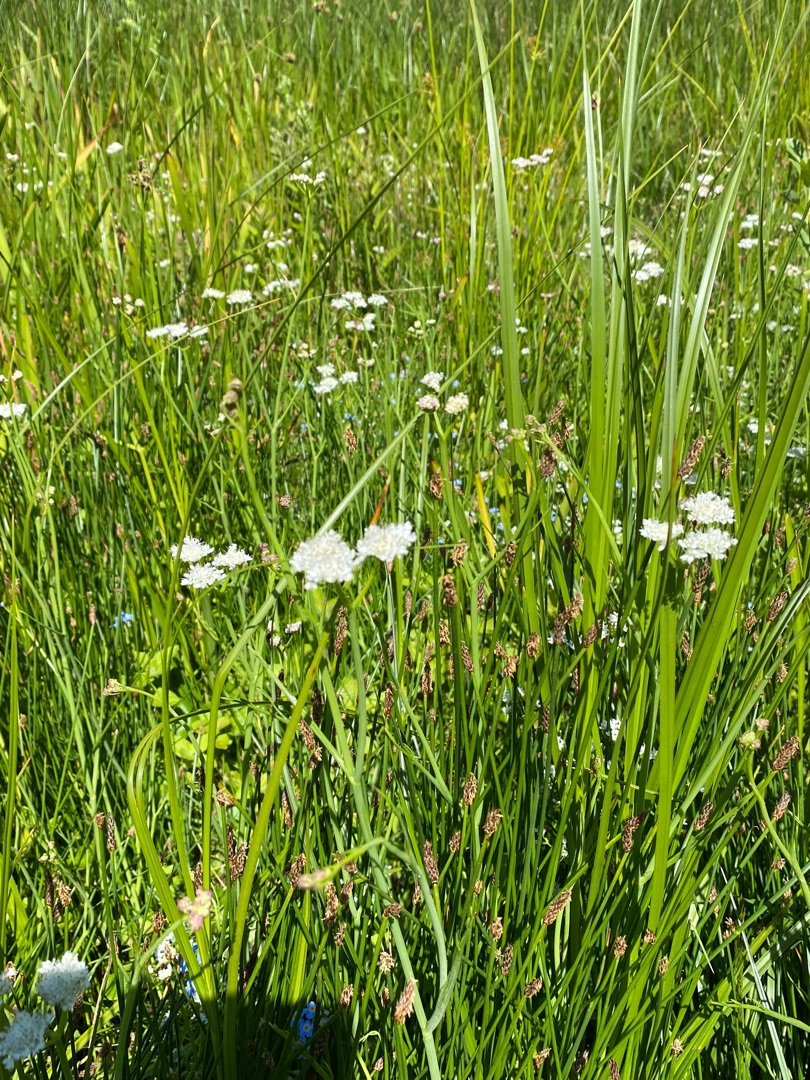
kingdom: Plantae
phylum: Tracheophyta
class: Magnoliopsida
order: Gentianales
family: Rubiaceae
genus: Galium
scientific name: Galium palustre
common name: Kær-snerre
